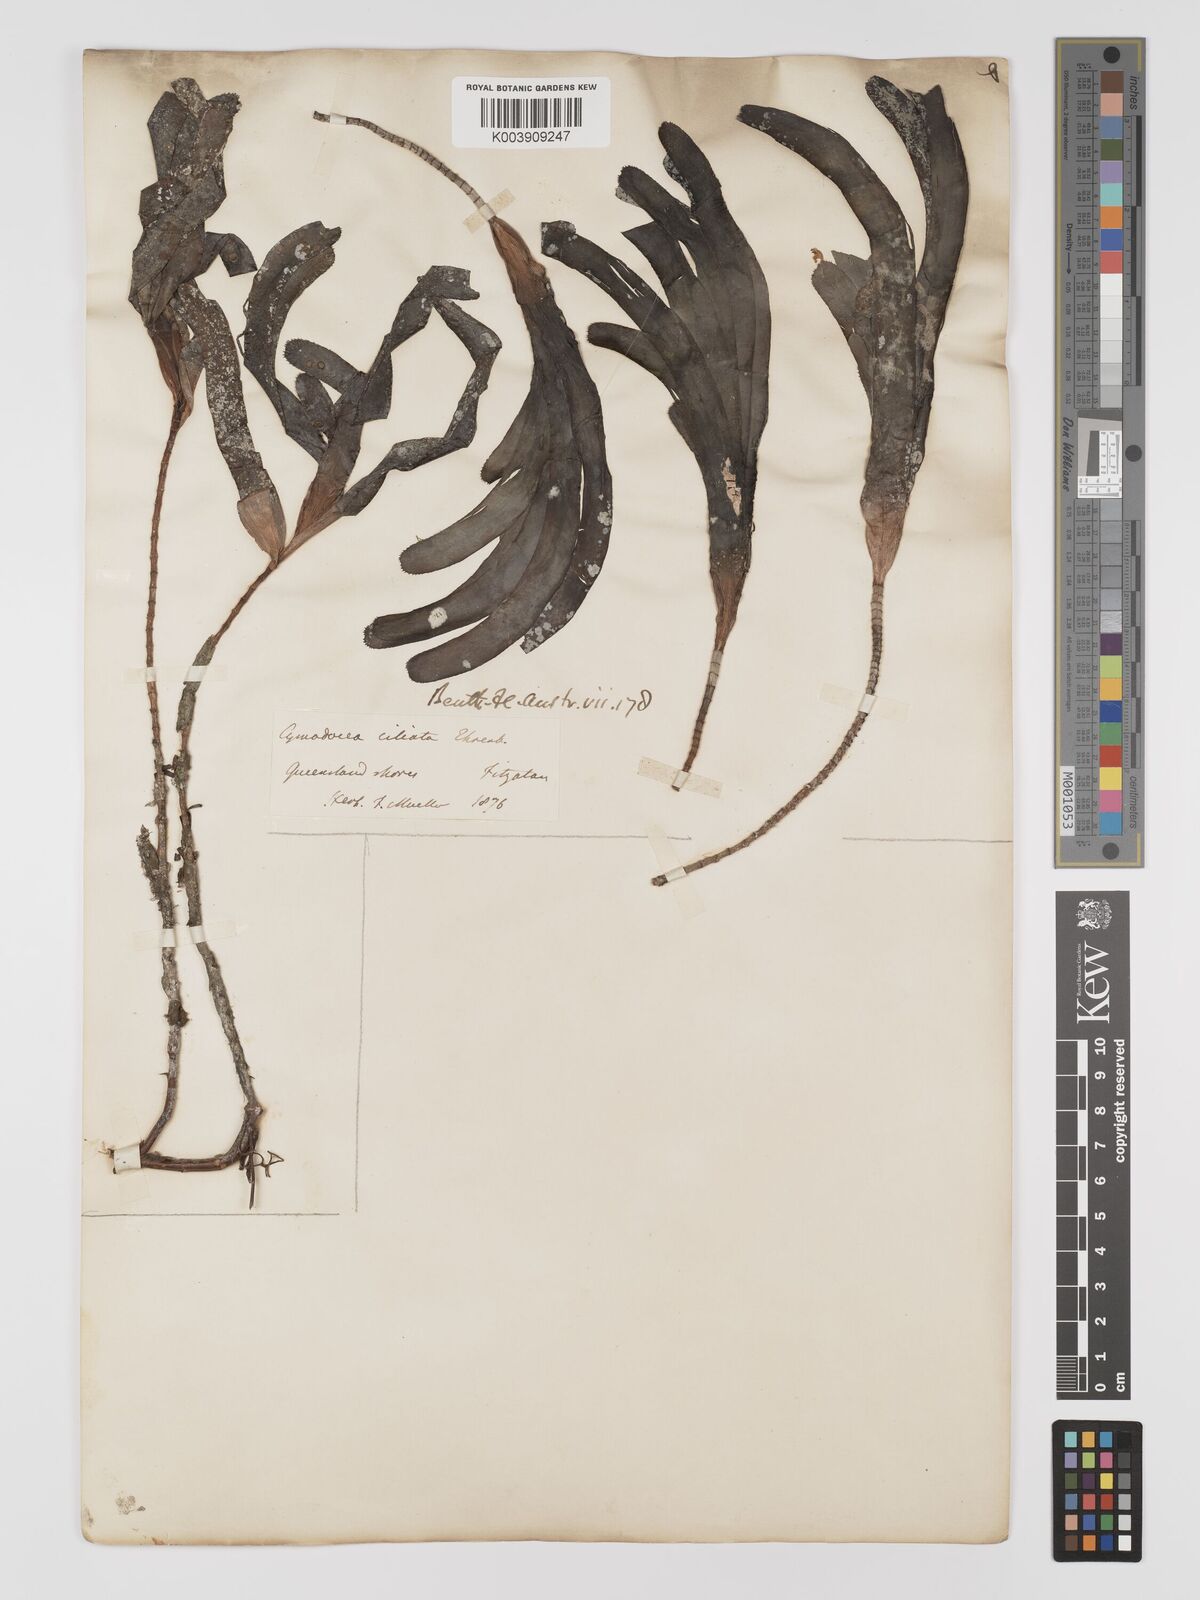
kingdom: Plantae
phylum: Tracheophyta
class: Liliopsida
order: Alismatales
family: Cymodoceaceae
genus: Thalassodendron
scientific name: Thalassodendron ciliatum
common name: Species code: tc
